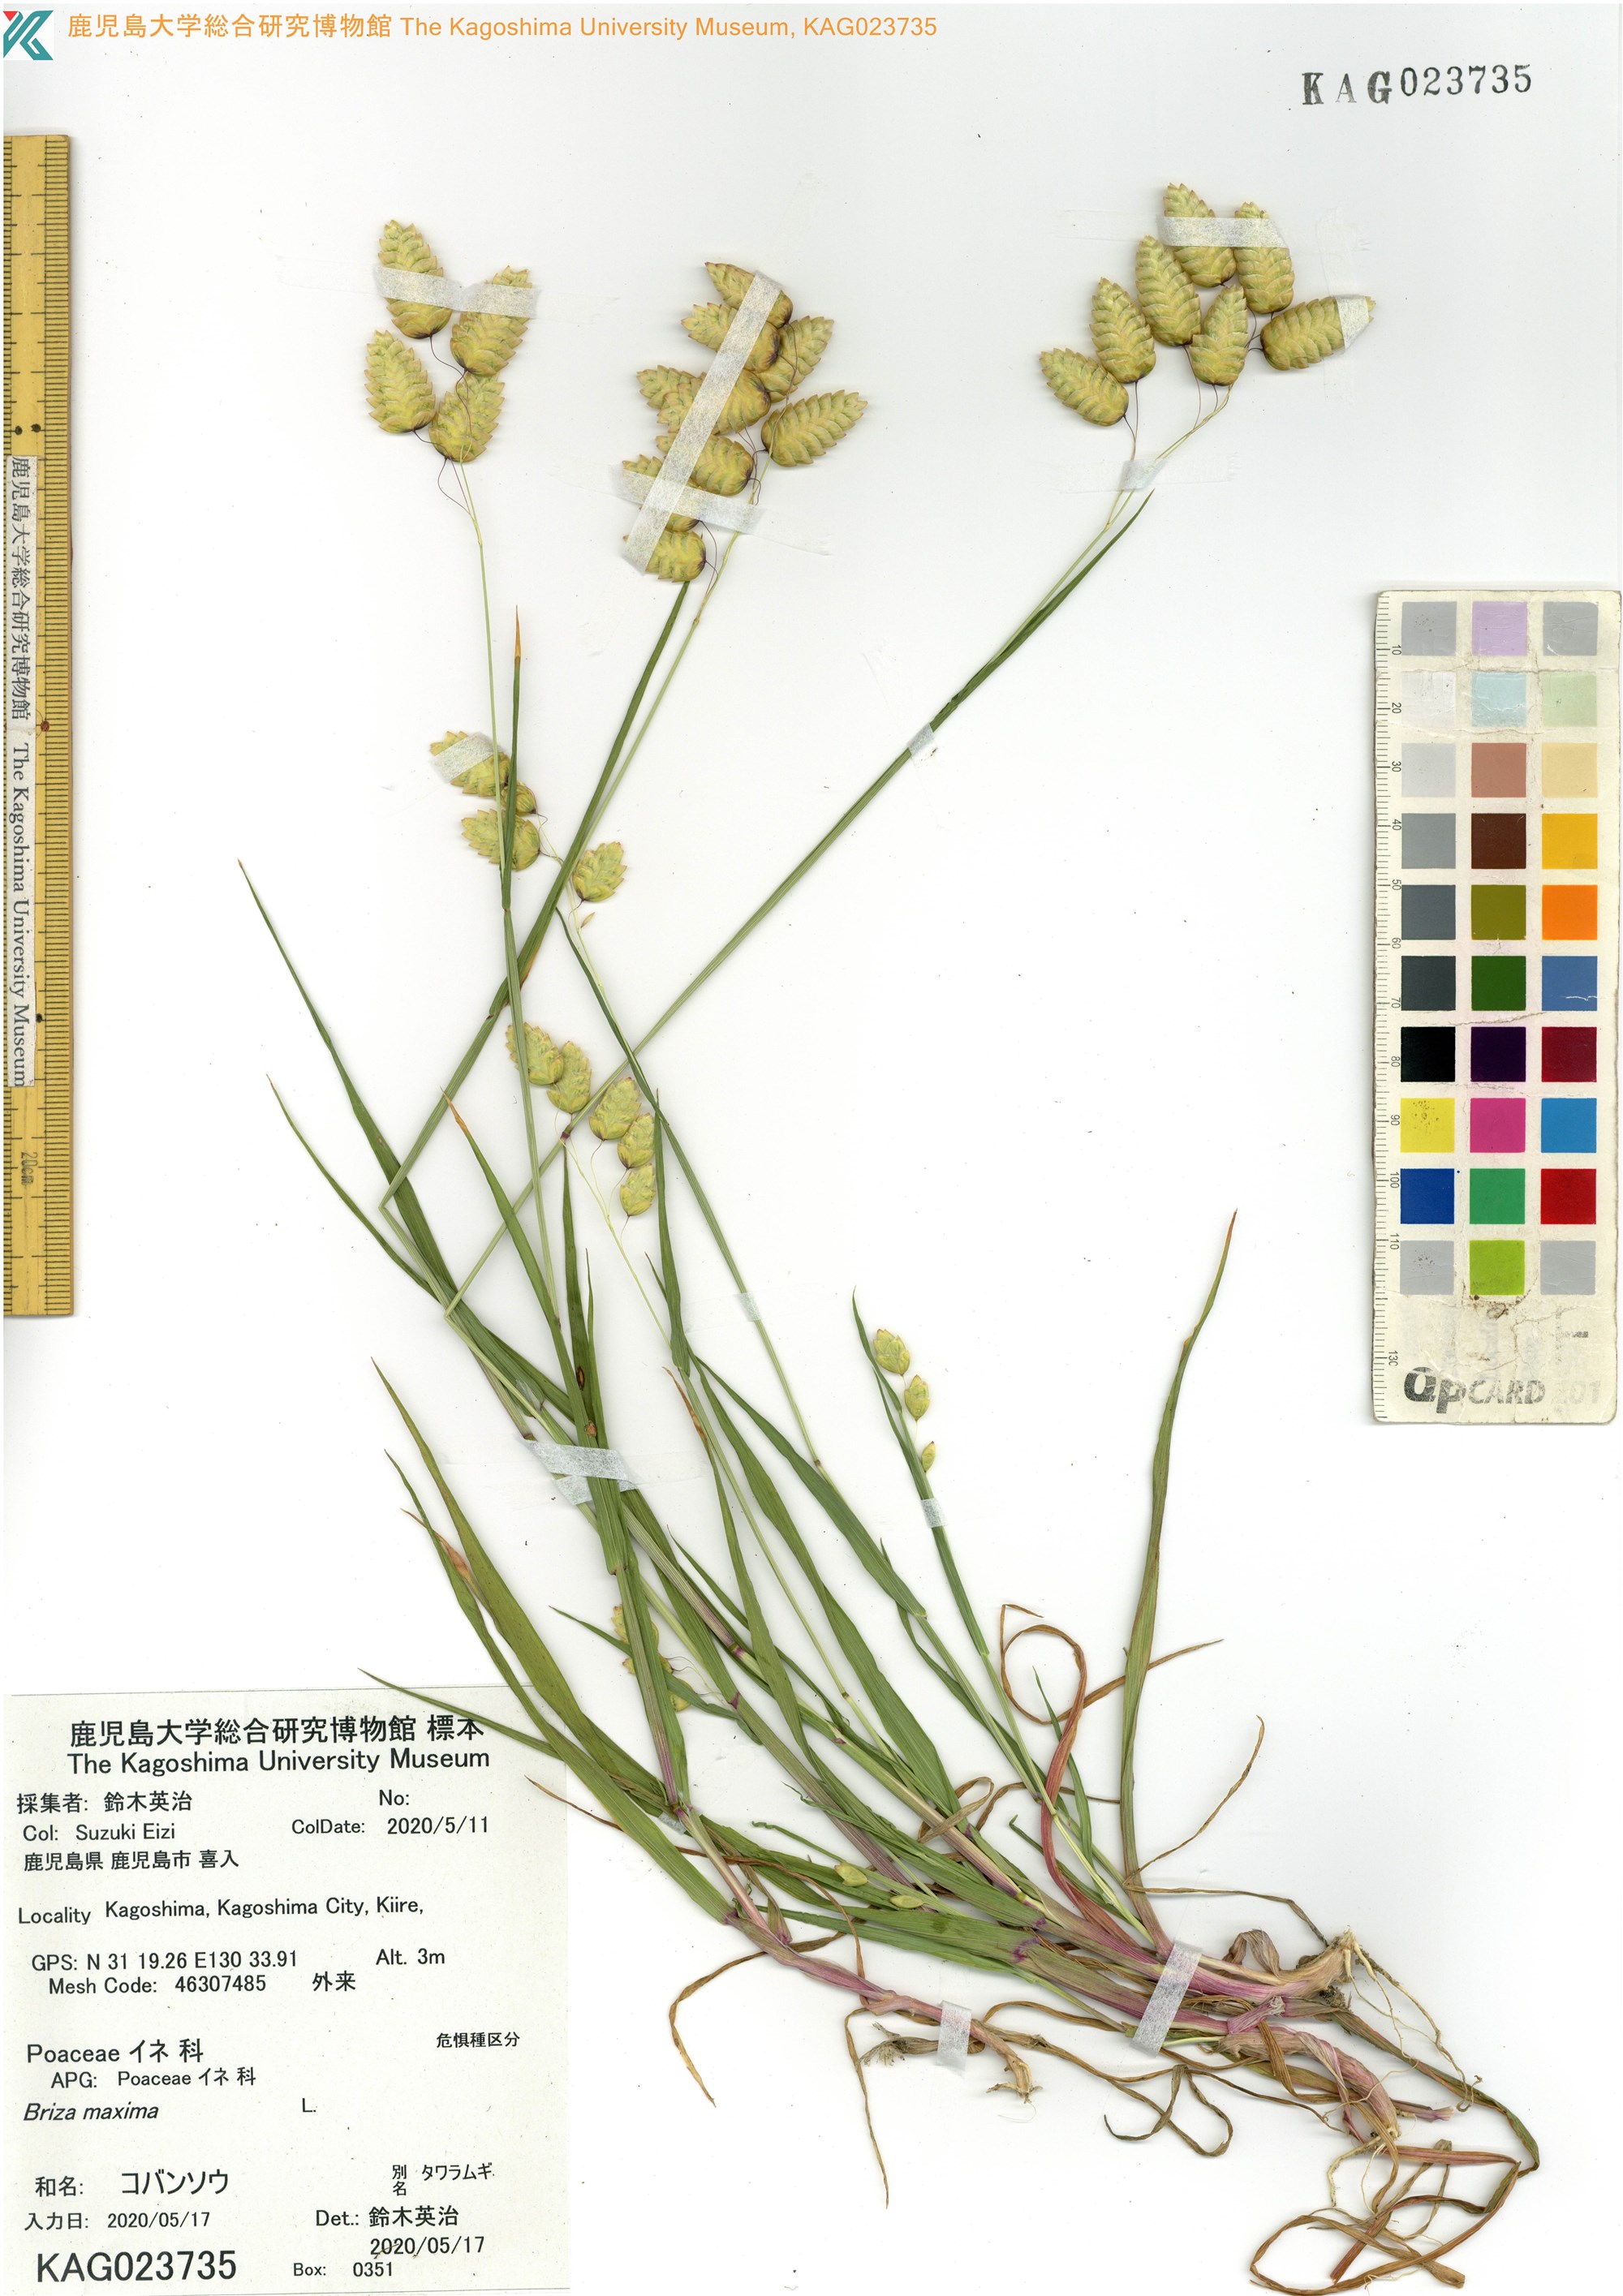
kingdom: Plantae
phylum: Tracheophyta
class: Liliopsida
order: Poales
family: Poaceae
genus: Briza
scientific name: Briza maxima
